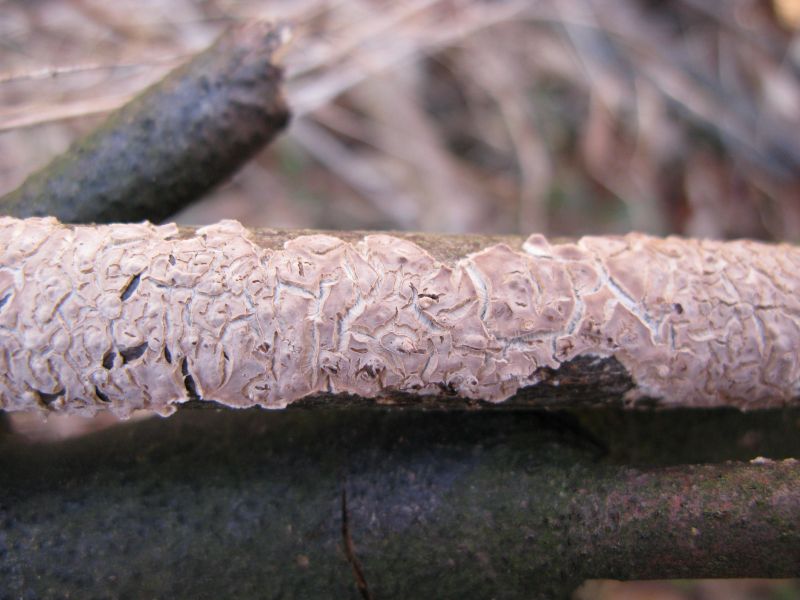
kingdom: Fungi
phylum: Basidiomycota
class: Agaricomycetes
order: Agaricales
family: Physalacriaceae
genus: Cylindrobasidium
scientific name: Cylindrobasidium evolvens
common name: sprækkehinde
